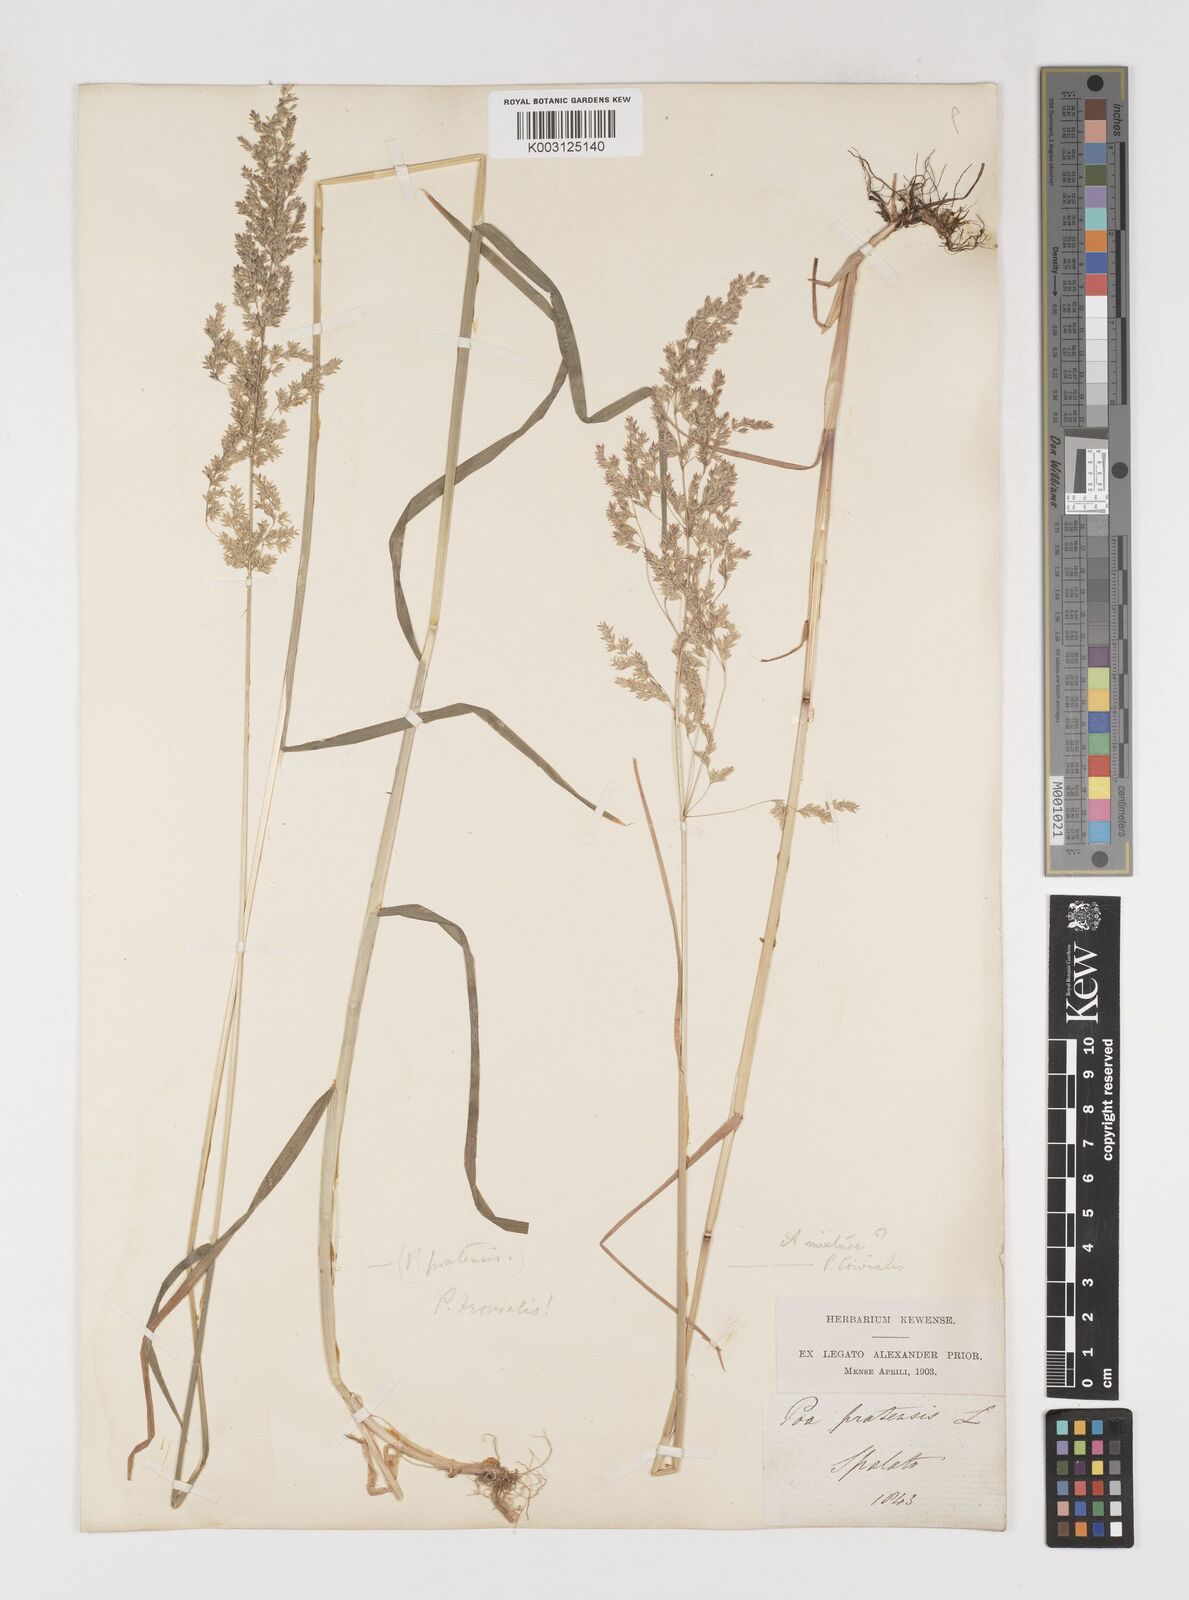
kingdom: Plantae
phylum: Tracheophyta
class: Liliopsida
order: Poales
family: Poaceae
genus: Poa
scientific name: Poa trivialis
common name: Rough bluegrass
